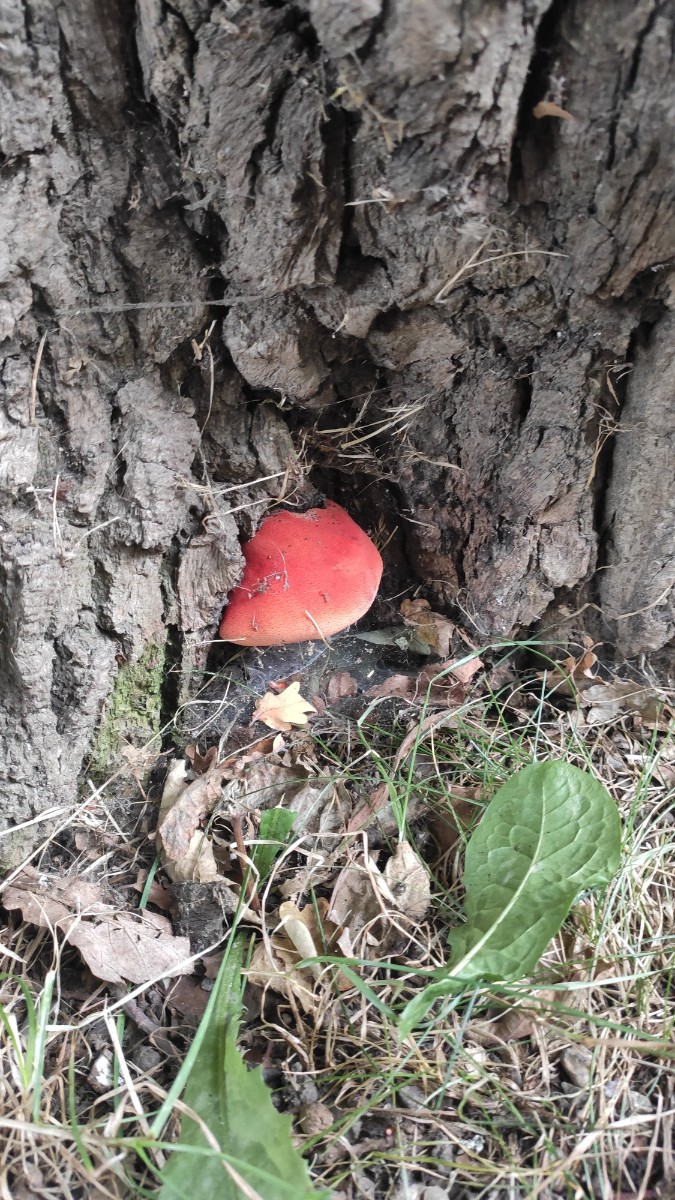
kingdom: Fungi
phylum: Basidiomycota
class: Agaricomycetes
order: Agaricales
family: Fistulinaceae
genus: Fistulina
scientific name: Fistulina hepatica
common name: oksetunge
